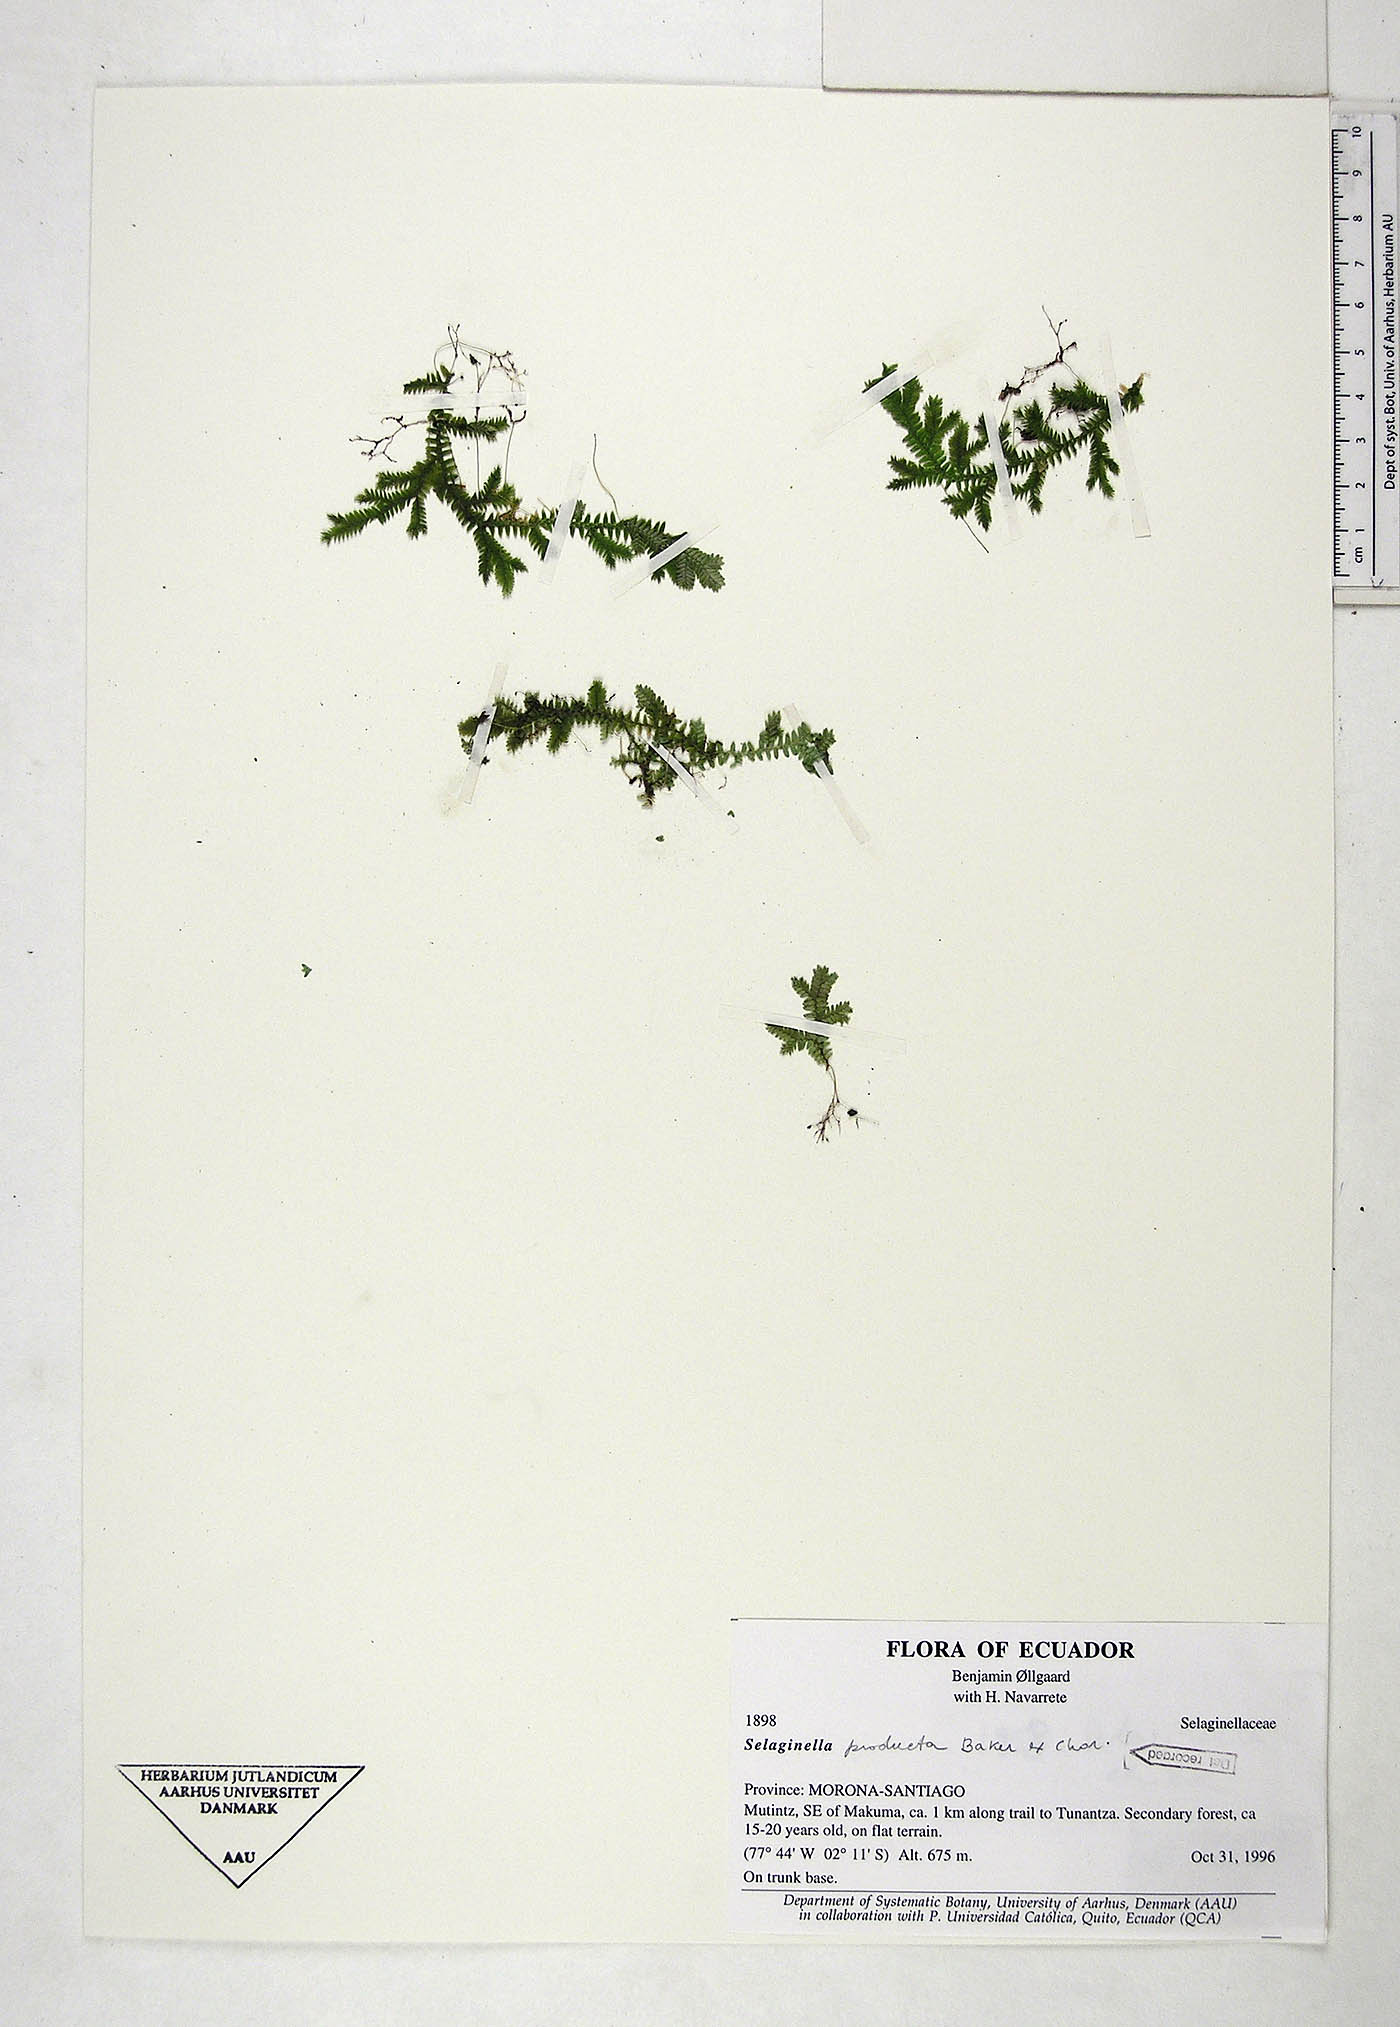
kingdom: Plantae
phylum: Tracheophyta
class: Lycopodiopsida
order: Selaginellales
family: Selaginellaceae
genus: Selaginella
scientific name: Selaginella producta
